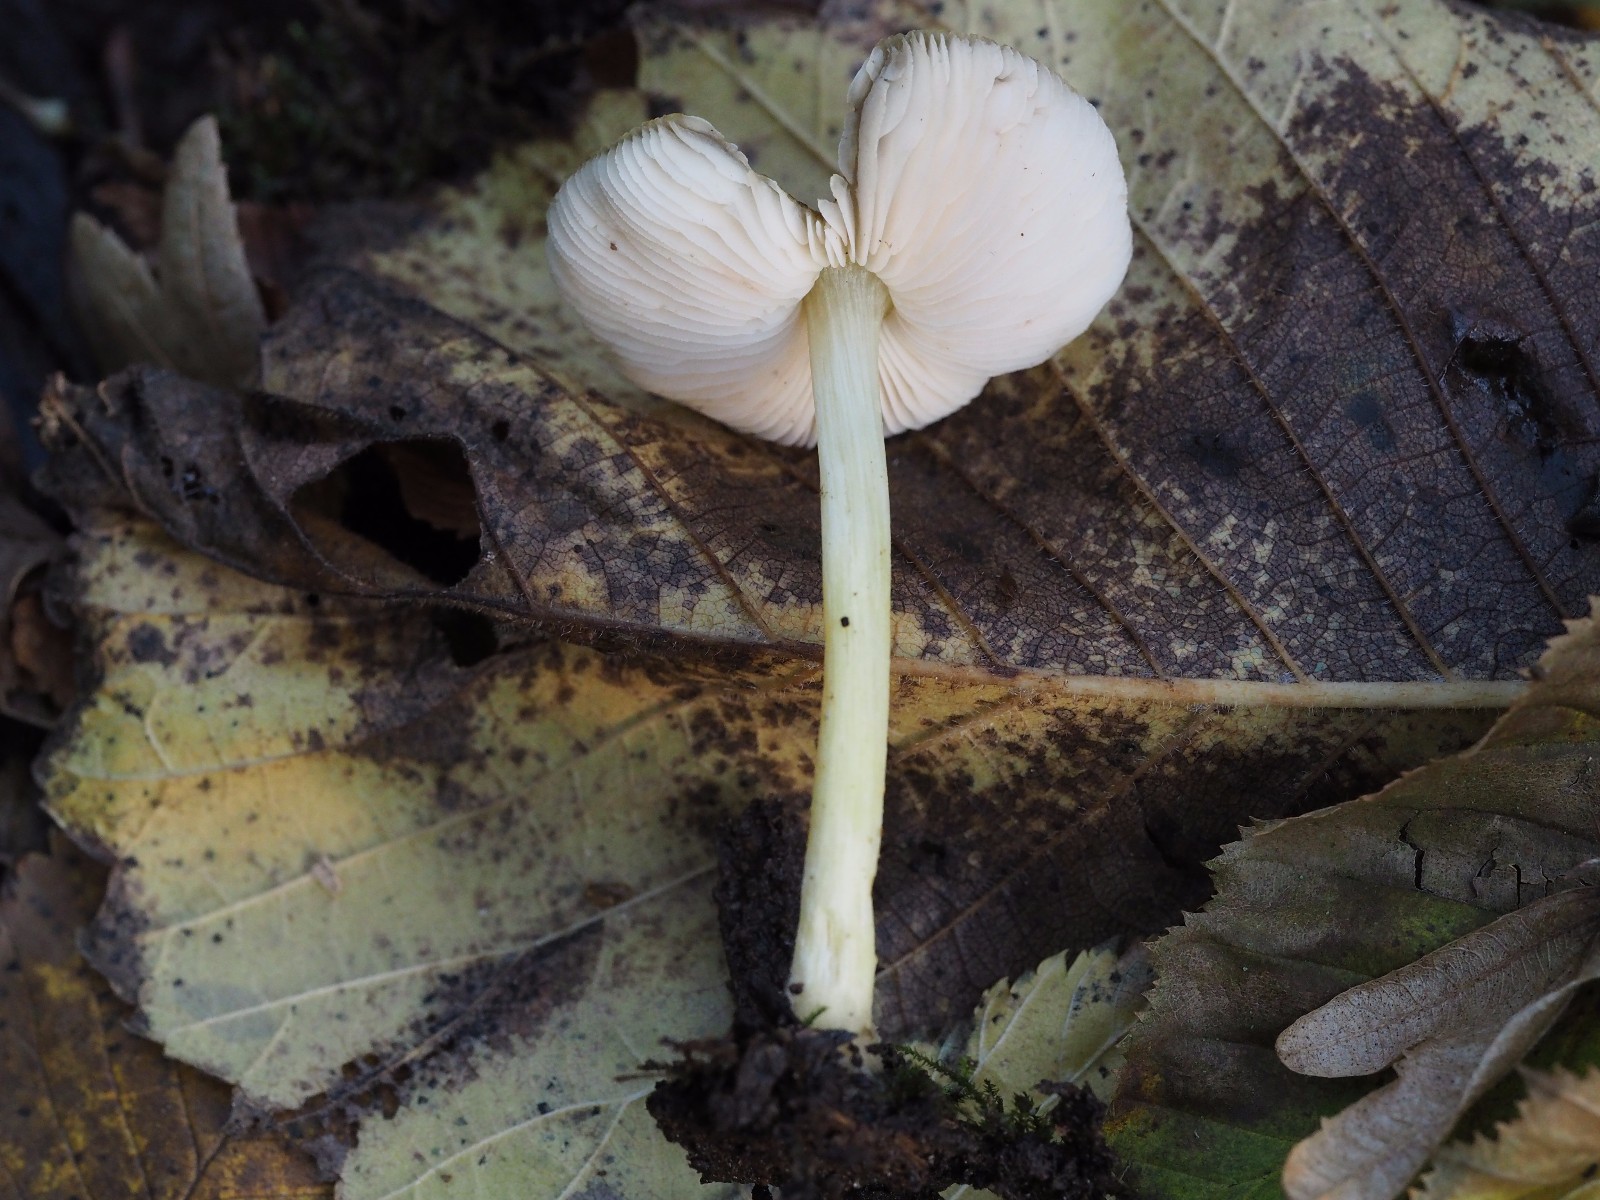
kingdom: Fungi
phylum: Basidiomycota
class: Agaricomycetes
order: Agaricales
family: Pluteaceae
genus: Pluteus
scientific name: Pluteus romellii
